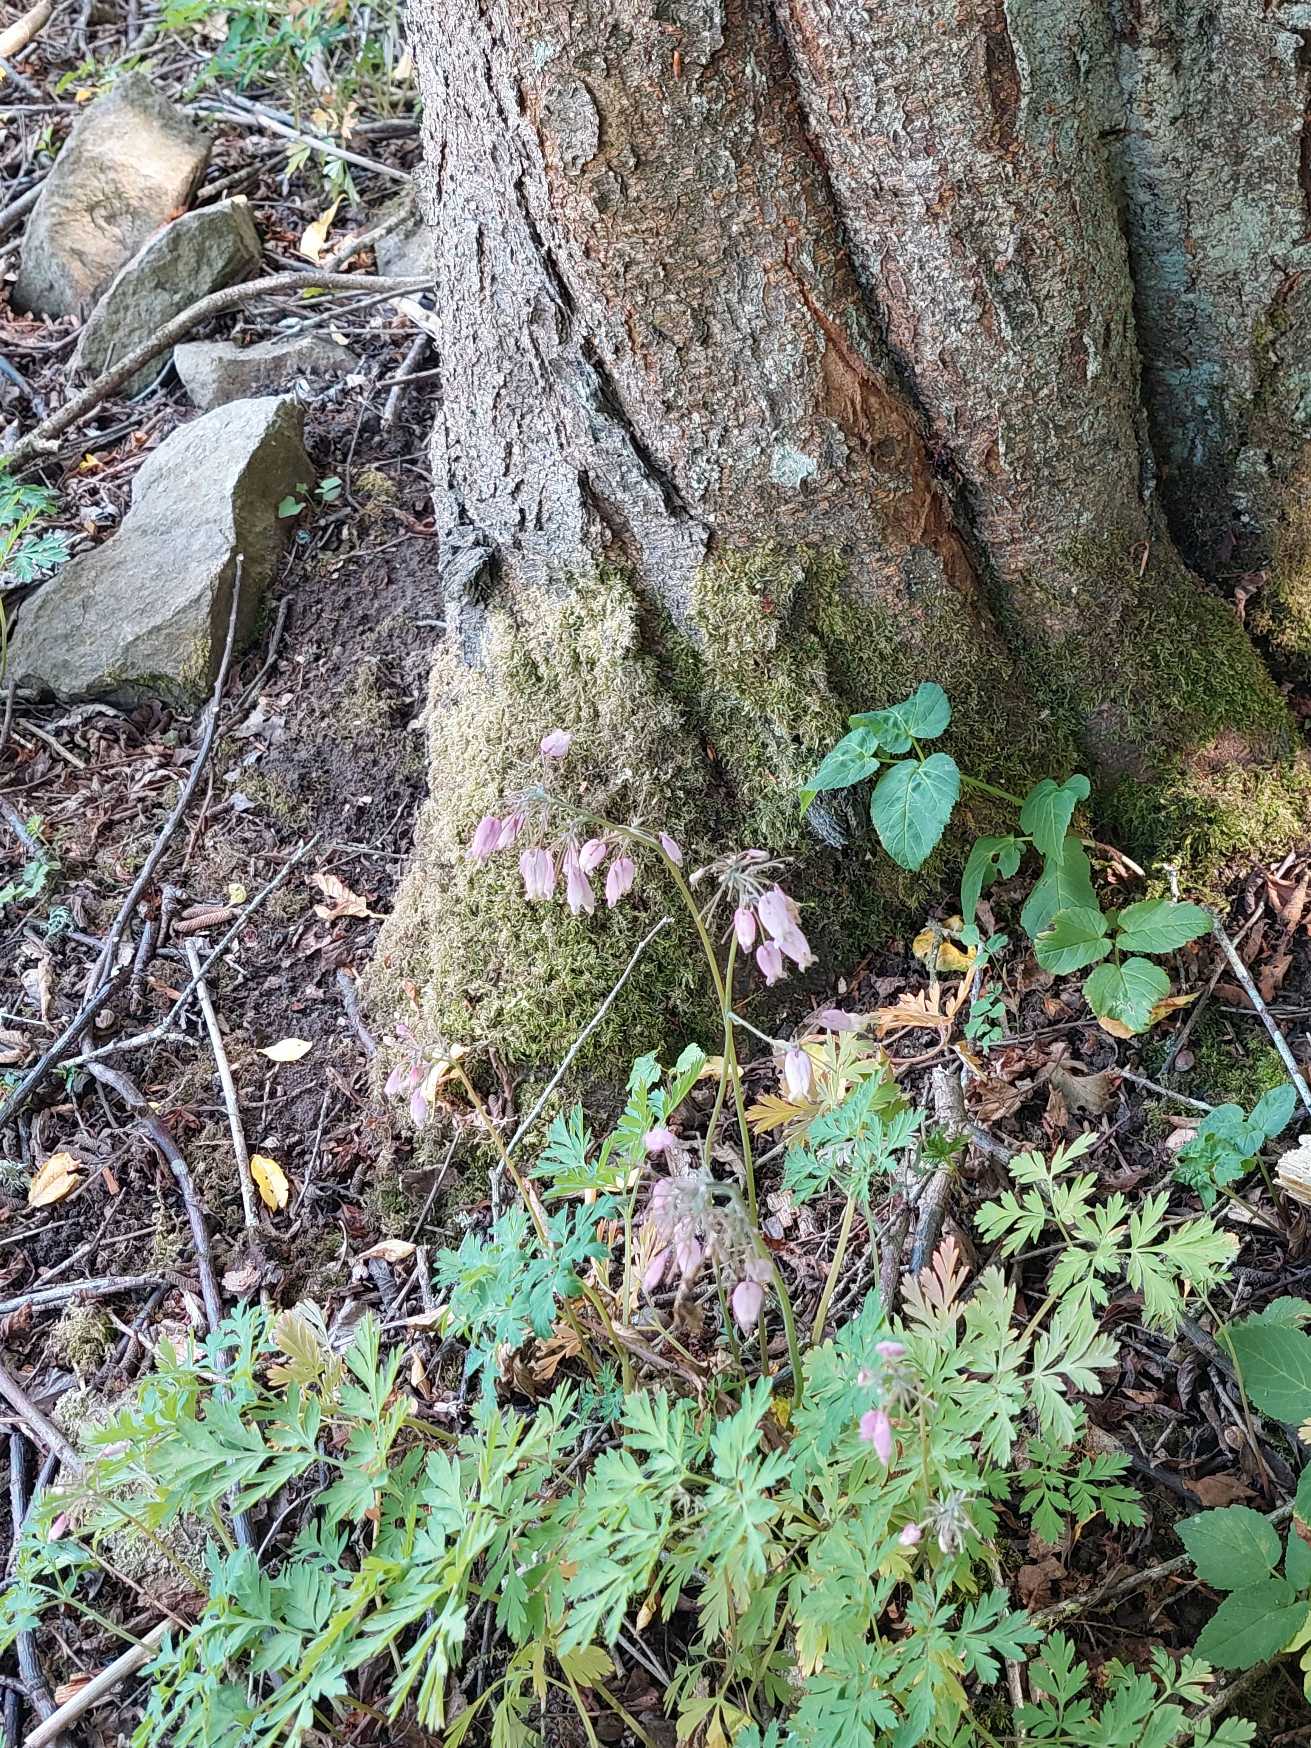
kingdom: Plantae
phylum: Tracheophyta
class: Magnoliopsida
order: Ranunculales
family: Papaveraceae
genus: Dicentra
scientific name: Dicentra formosa
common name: Småhjerte
